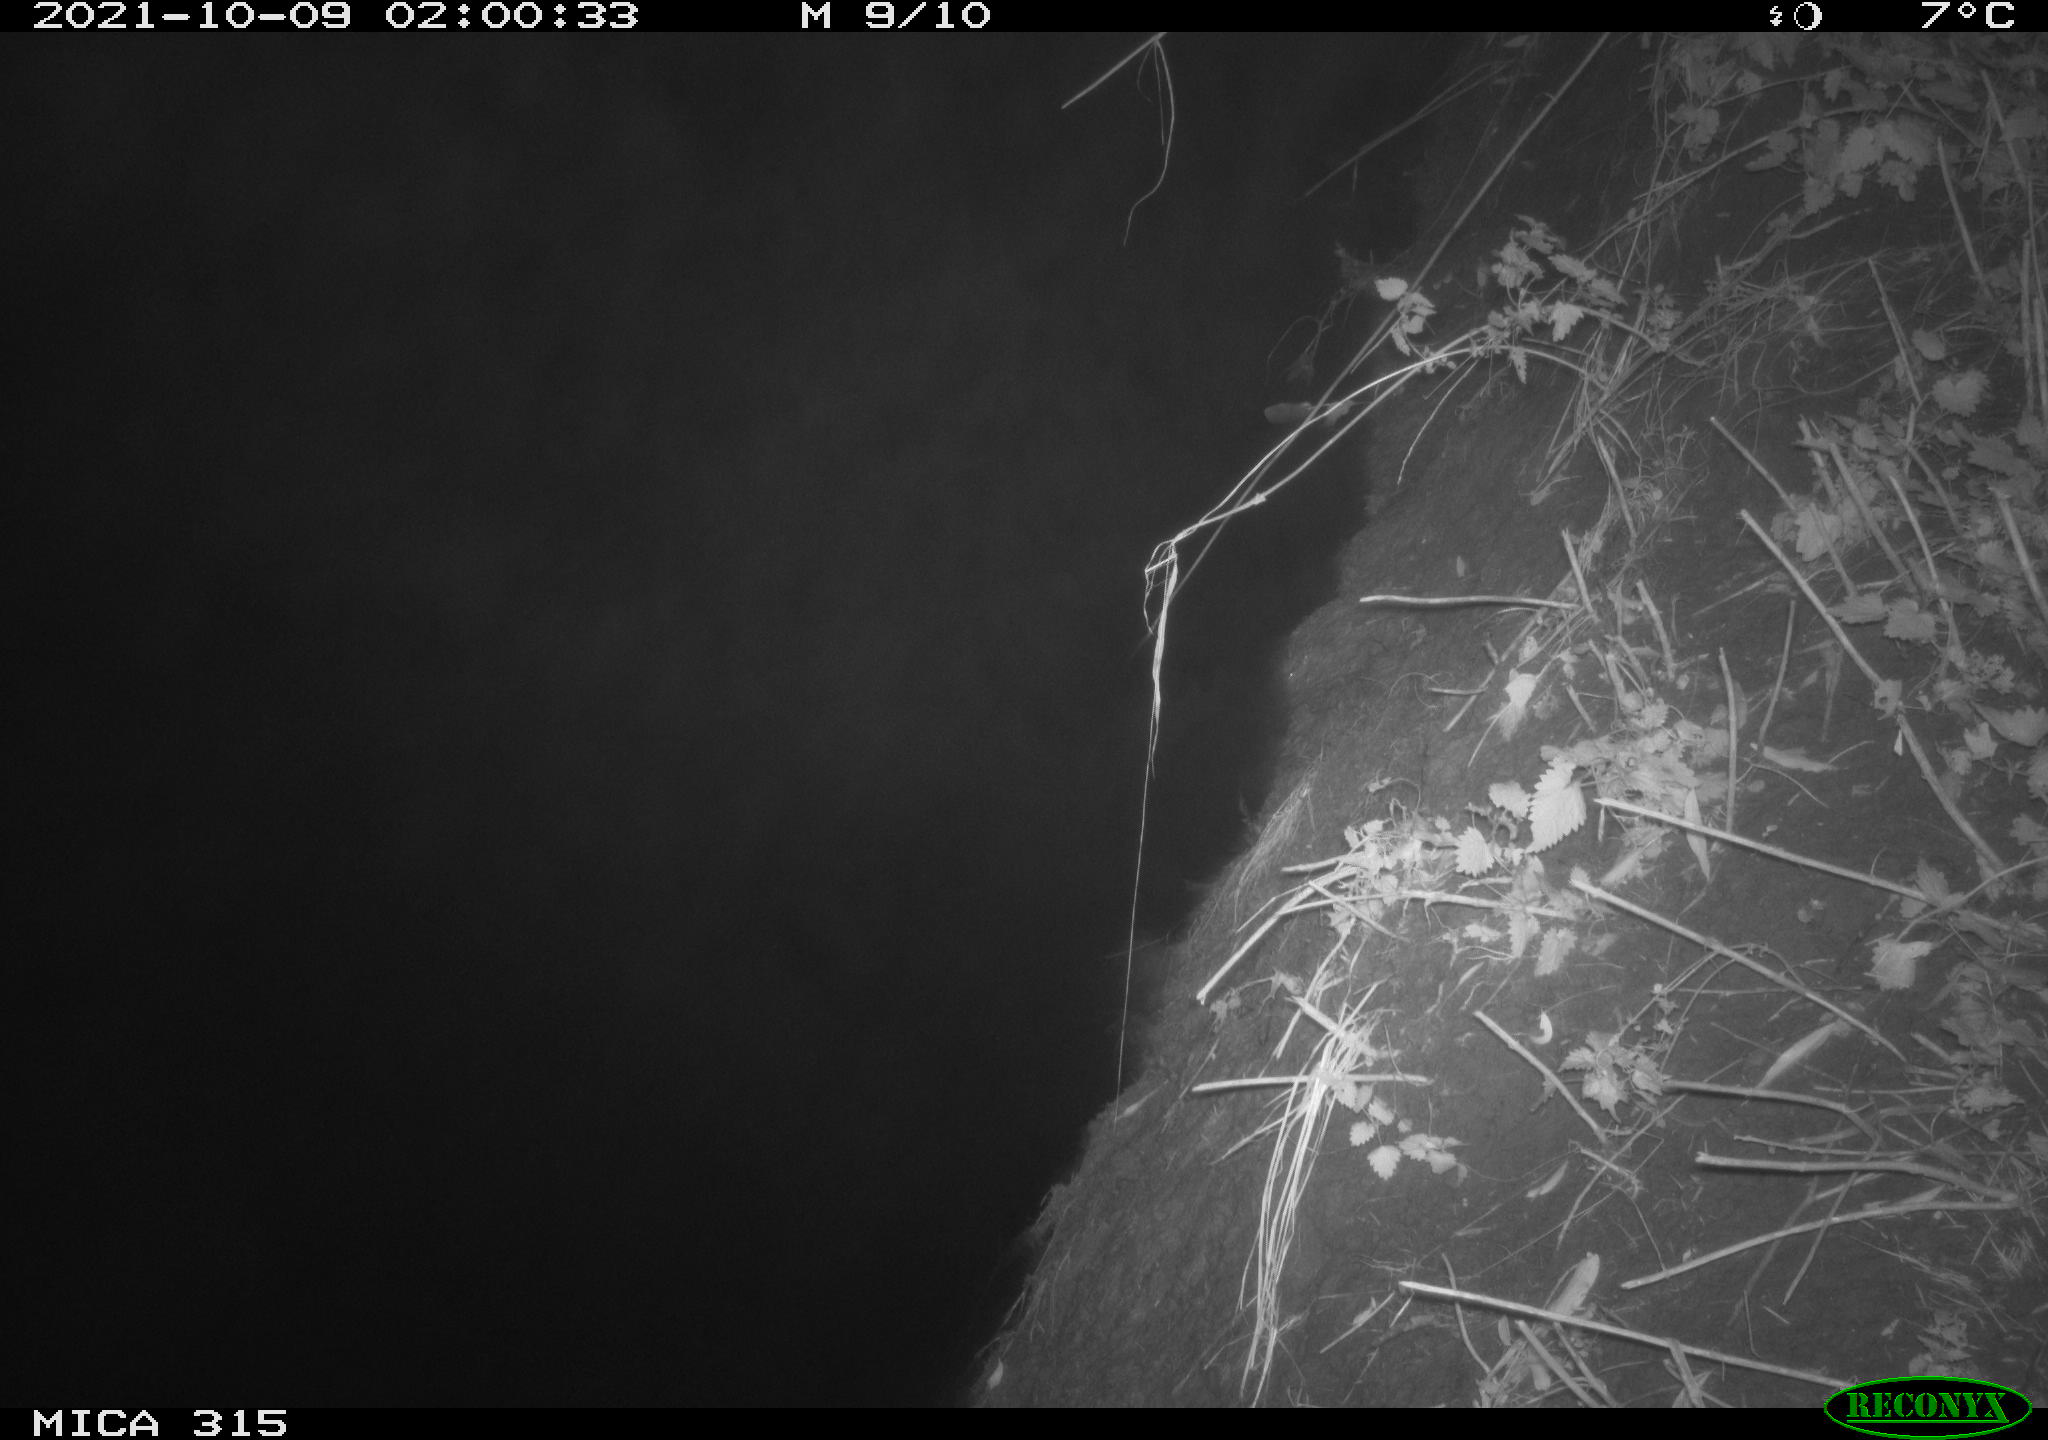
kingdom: Animalia
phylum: Chordata
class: Mammalia
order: Rodentia
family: Muridae
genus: Rattus
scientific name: Rattus norvegicus
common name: Brown rat
